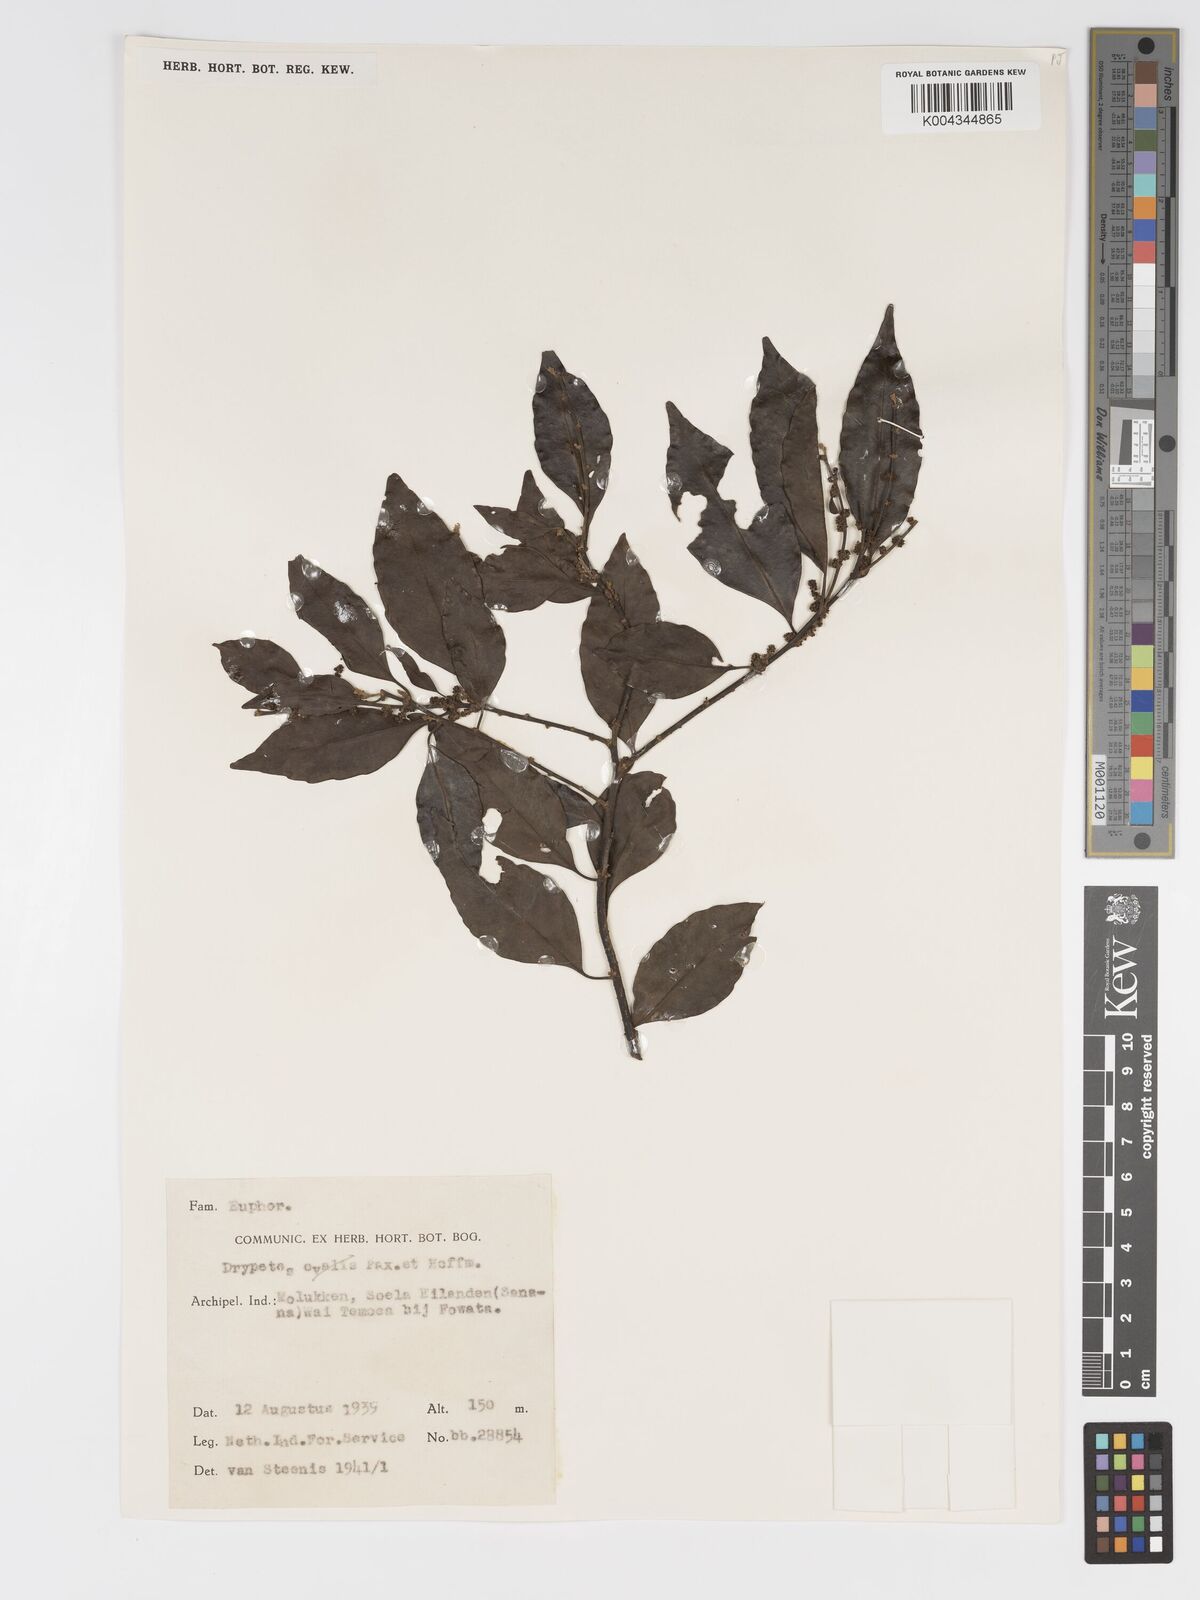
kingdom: Plantae
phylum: Tracheophyta
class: Magnoliopsida
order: Malpighiales
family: Putranjivaceae
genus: Putranjiva
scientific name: Putranjiva roxburghii
